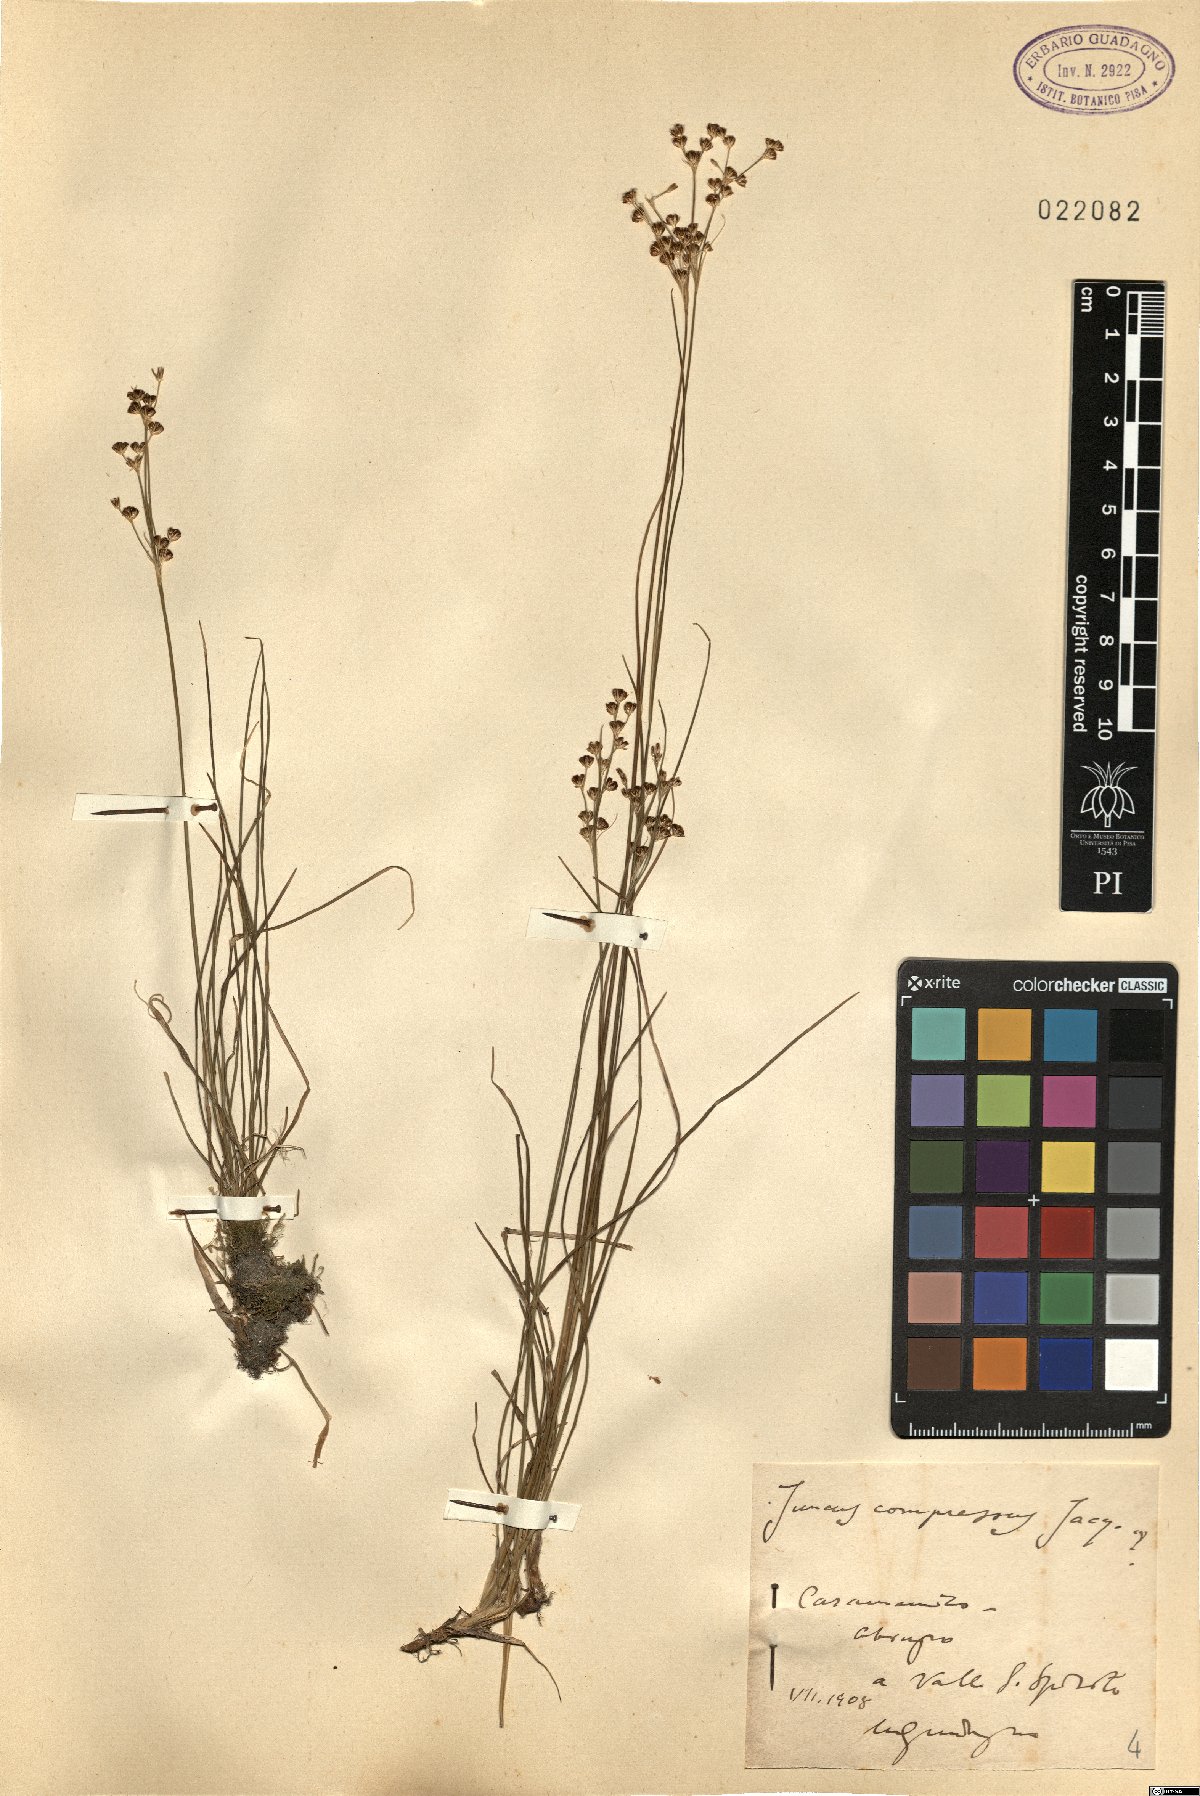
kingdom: Plantae
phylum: Tracheophyta
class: Liliopsida
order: Poales
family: Juncaceae
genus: Juncus
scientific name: Juncus compressus
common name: Round-fruited rush
